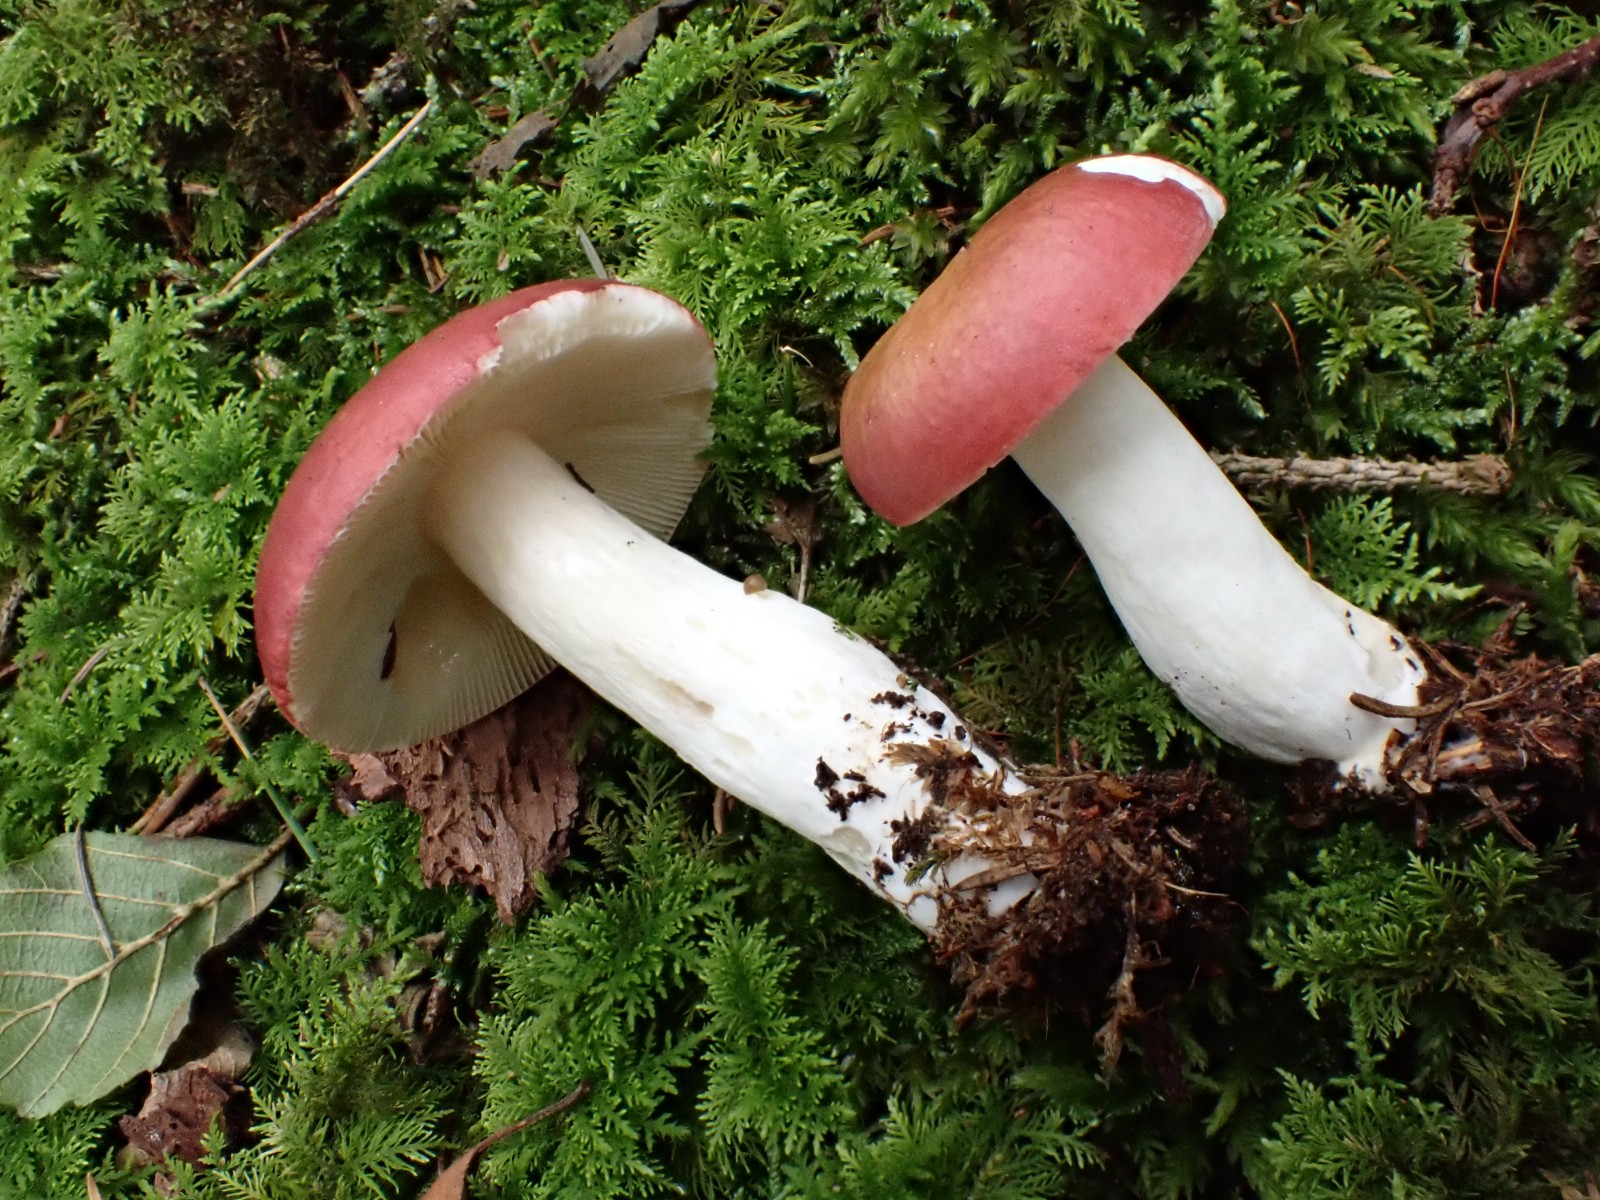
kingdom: Fungi
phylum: Basidiomycota
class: Agaricomycetes
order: Russulales
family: Russulaceae
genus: Russula
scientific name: Russula vinosa
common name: vinrød skørhat
